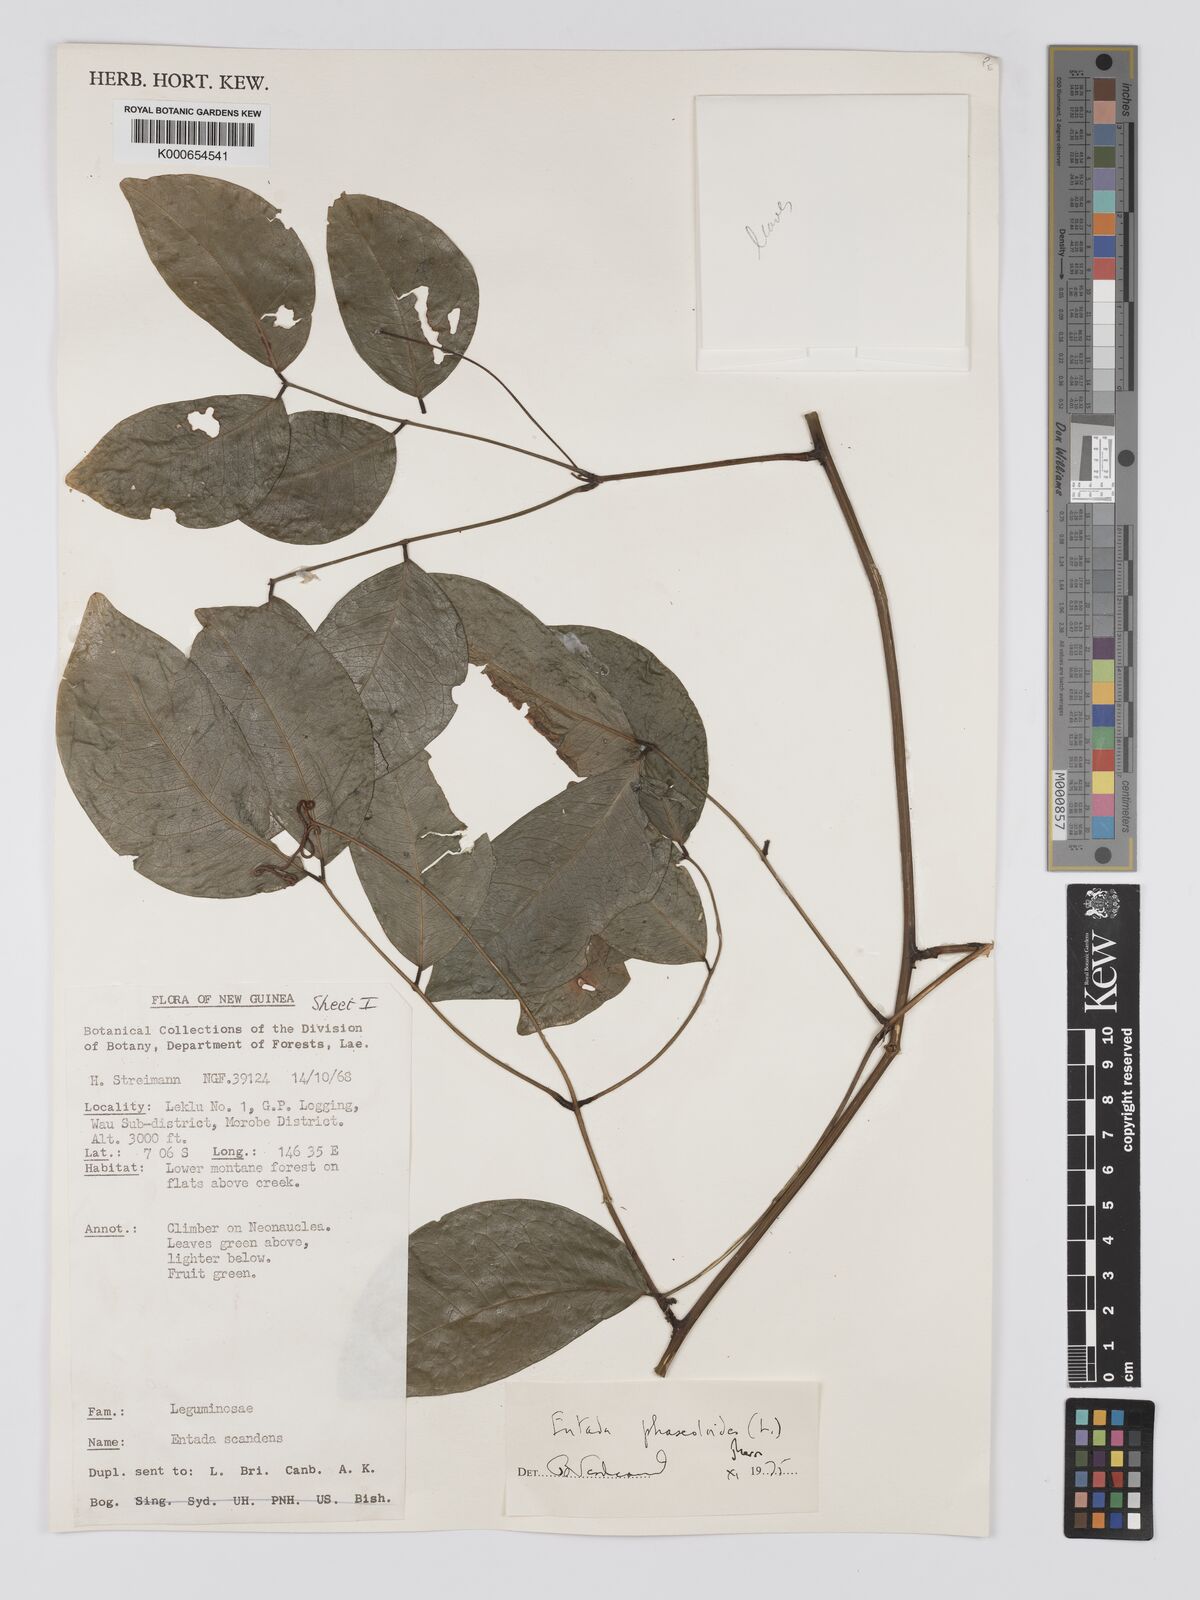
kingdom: Plantae
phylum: Tracheophyta
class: Magnoliopsida
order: Fabales
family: Fabaceae
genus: Entada
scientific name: Entada phaseoloides
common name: Matchbox-bean
